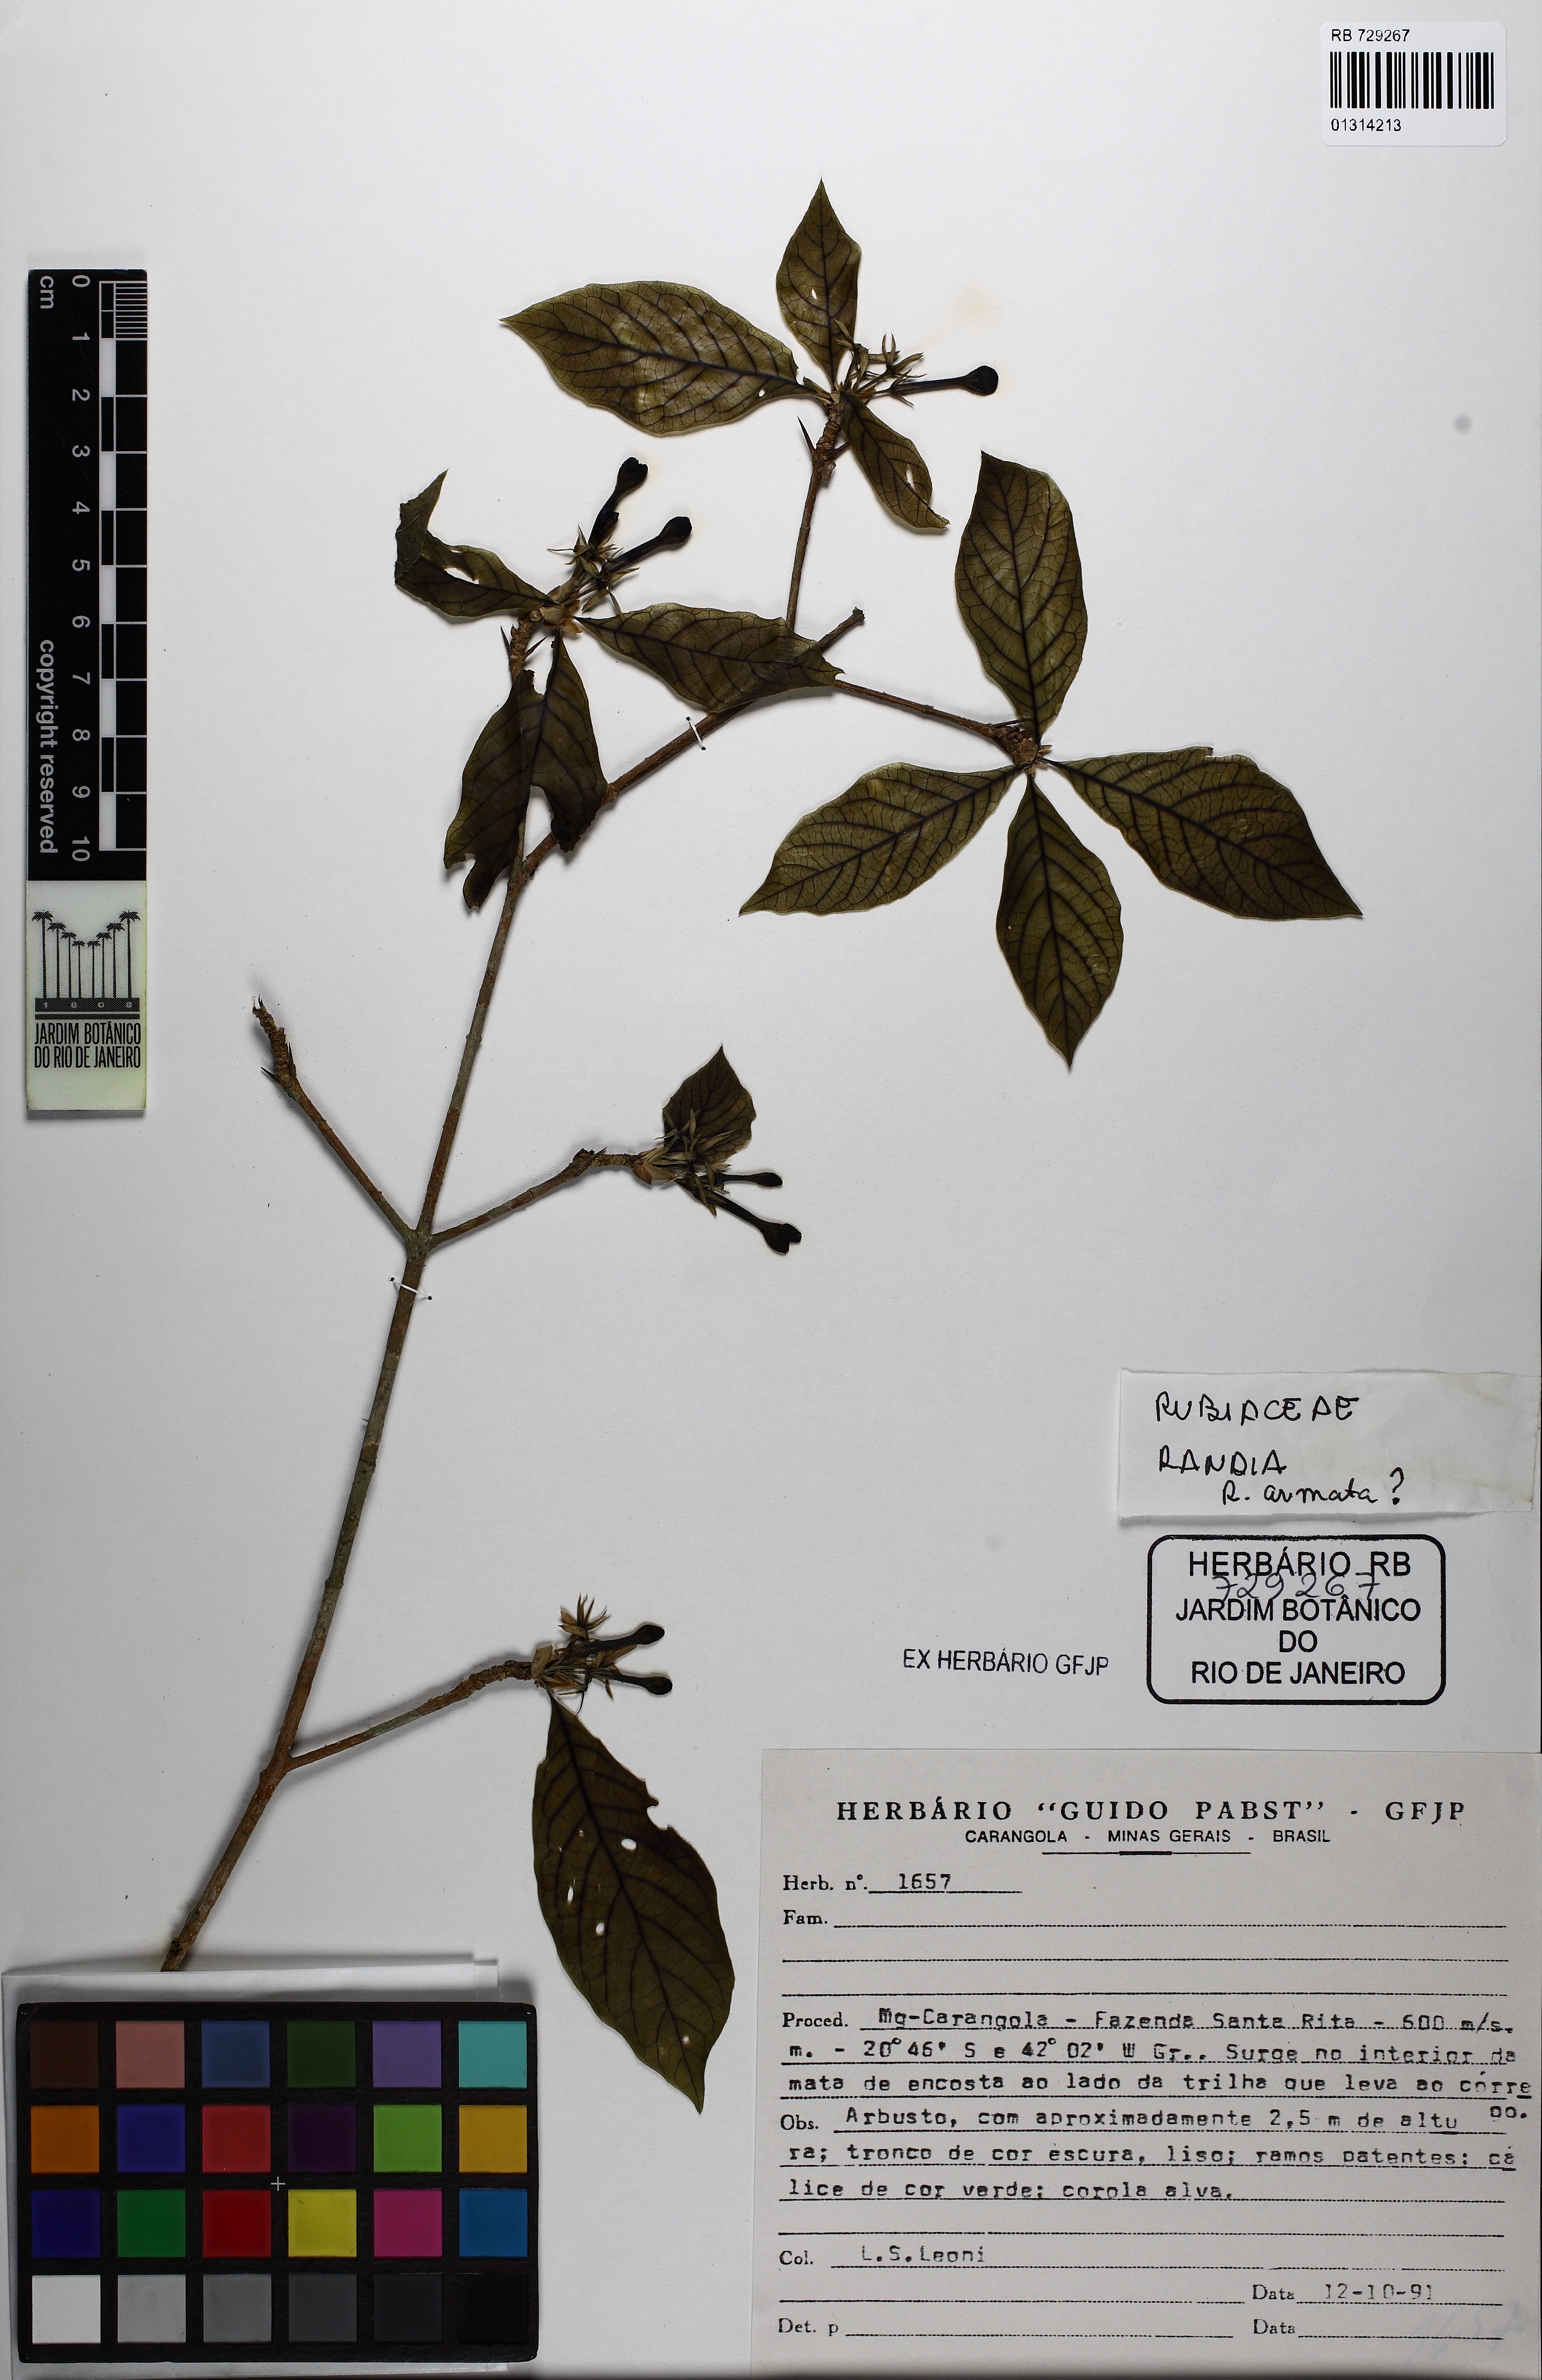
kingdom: Plantae
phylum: Tracheophyta
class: Magnoliopsida
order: Gentianales
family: Rubiaceae
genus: Randia
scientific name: Randia
